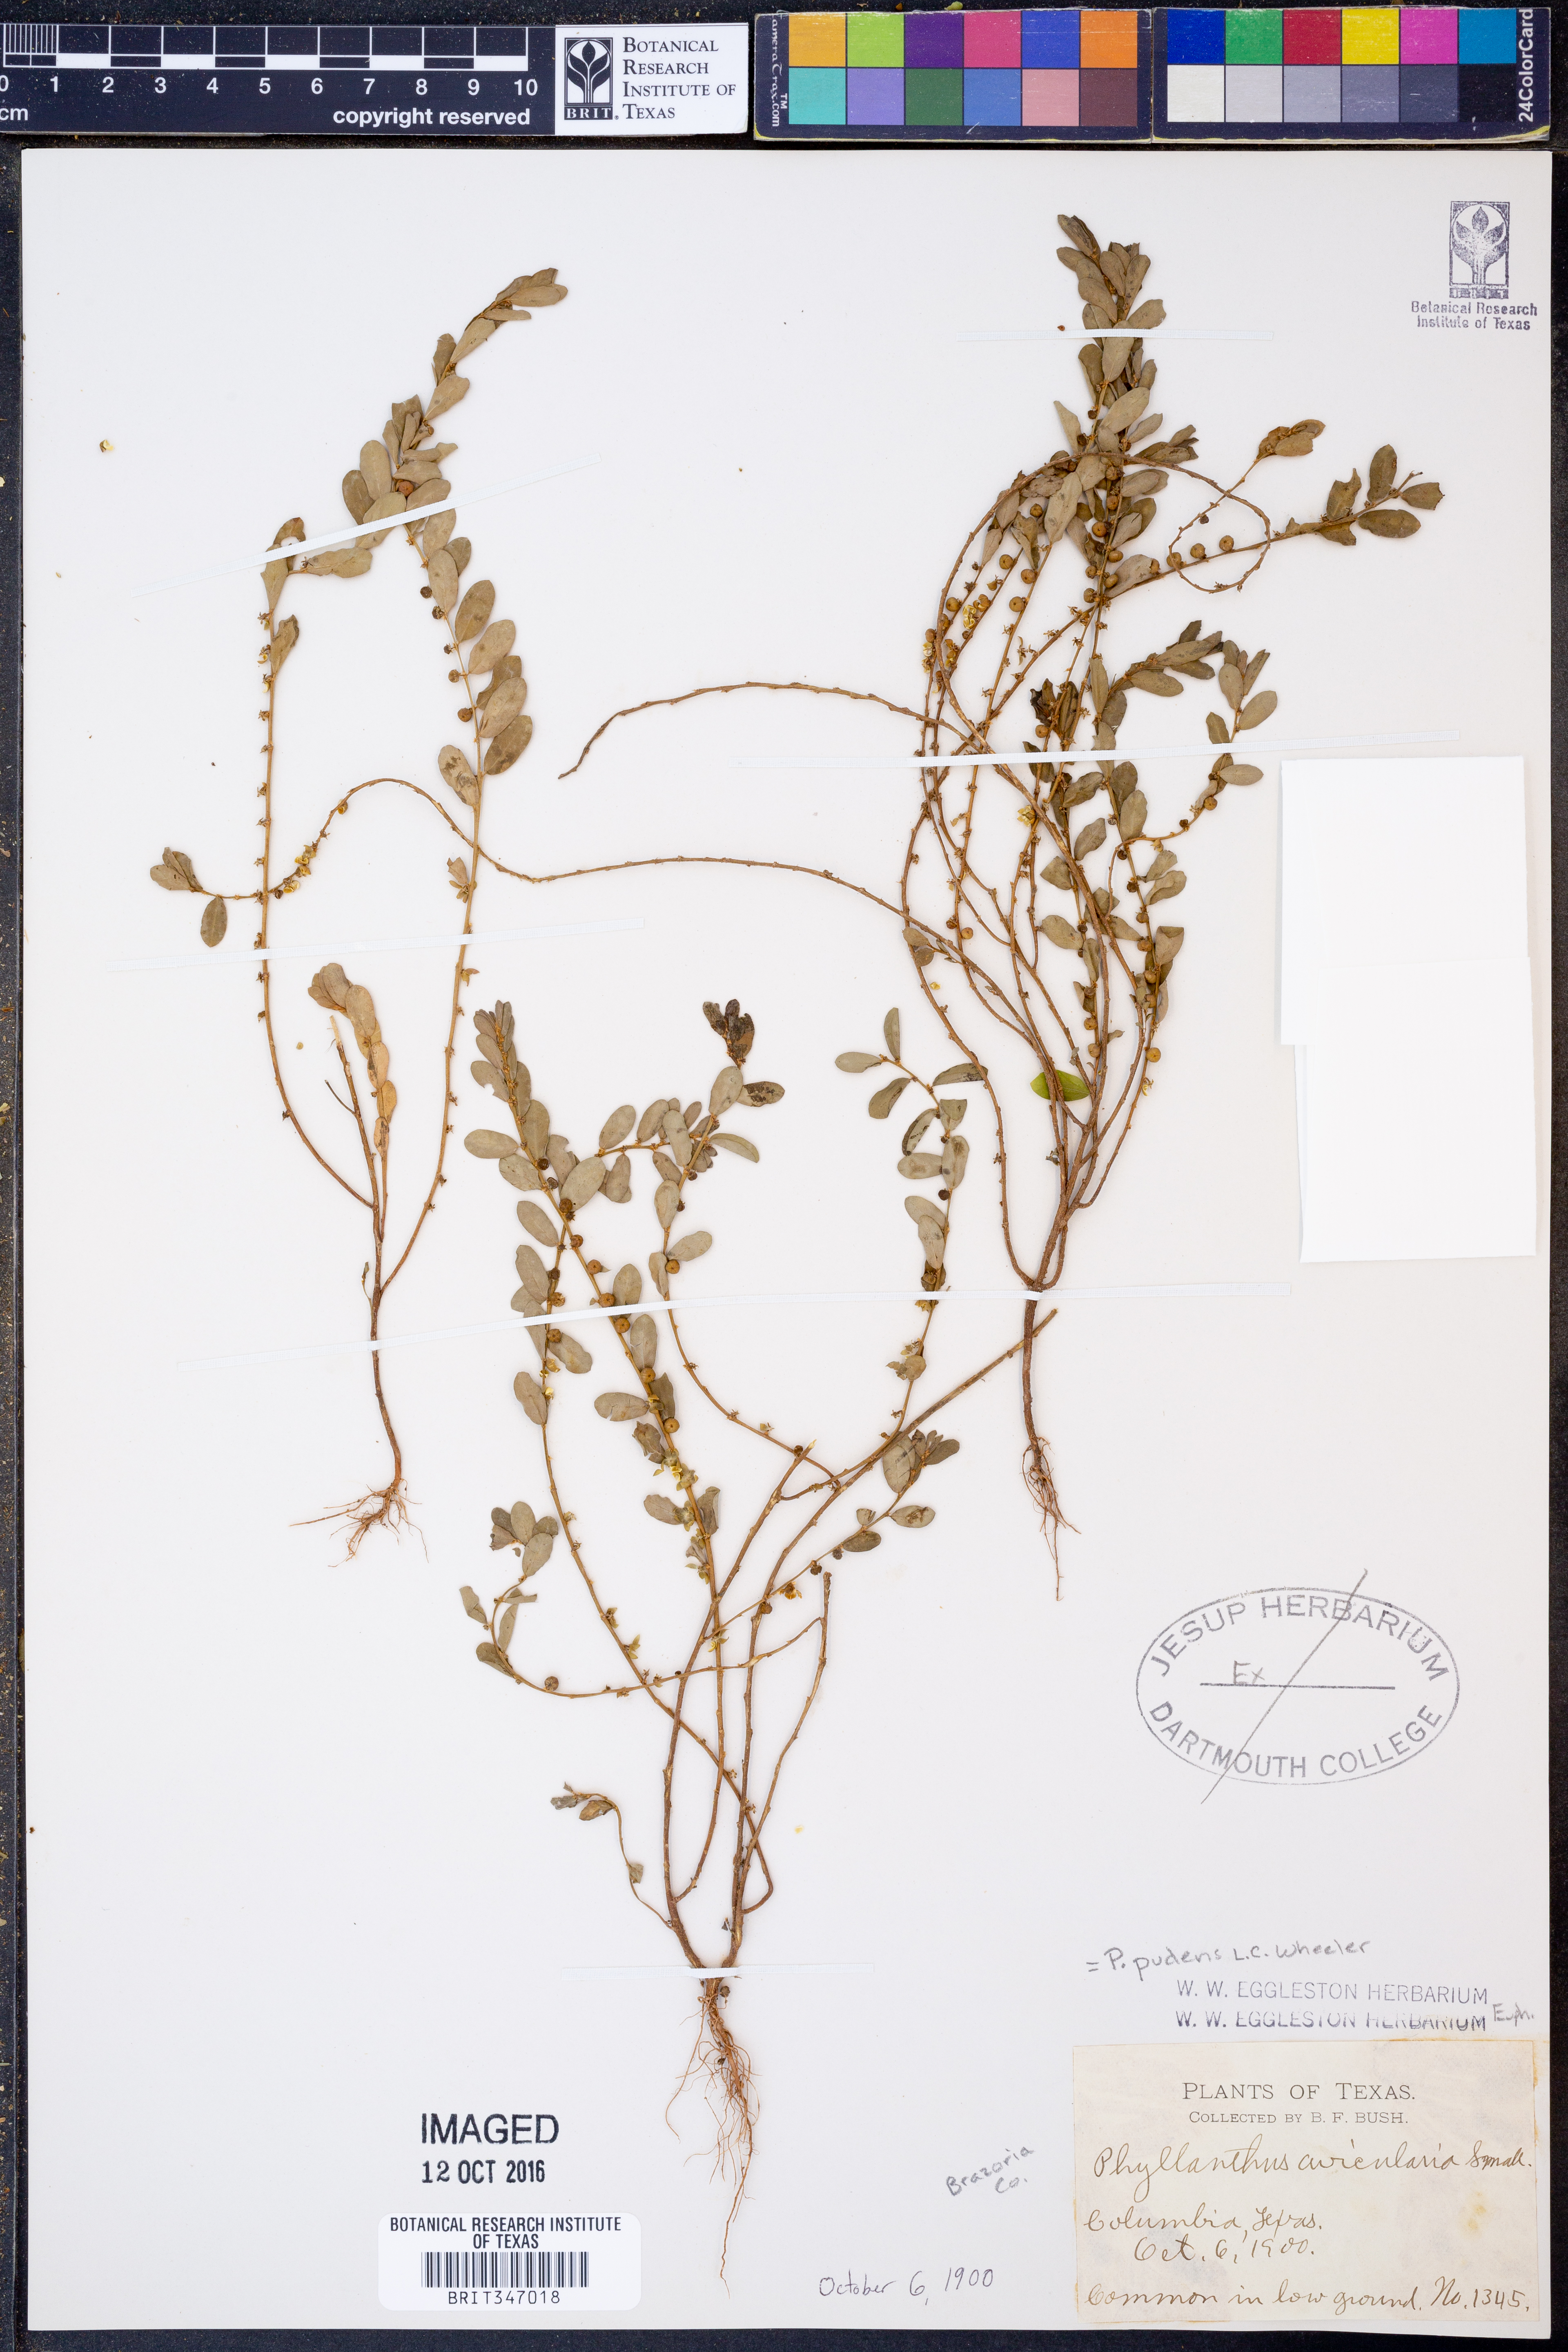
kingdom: Plantae
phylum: Tracheophyta
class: Magnoliopsida
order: Malpighiales
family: Phyllanthaceae
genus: Phyllanthus
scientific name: Phyllanthus evanescens
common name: Birdseed leaf-flower
